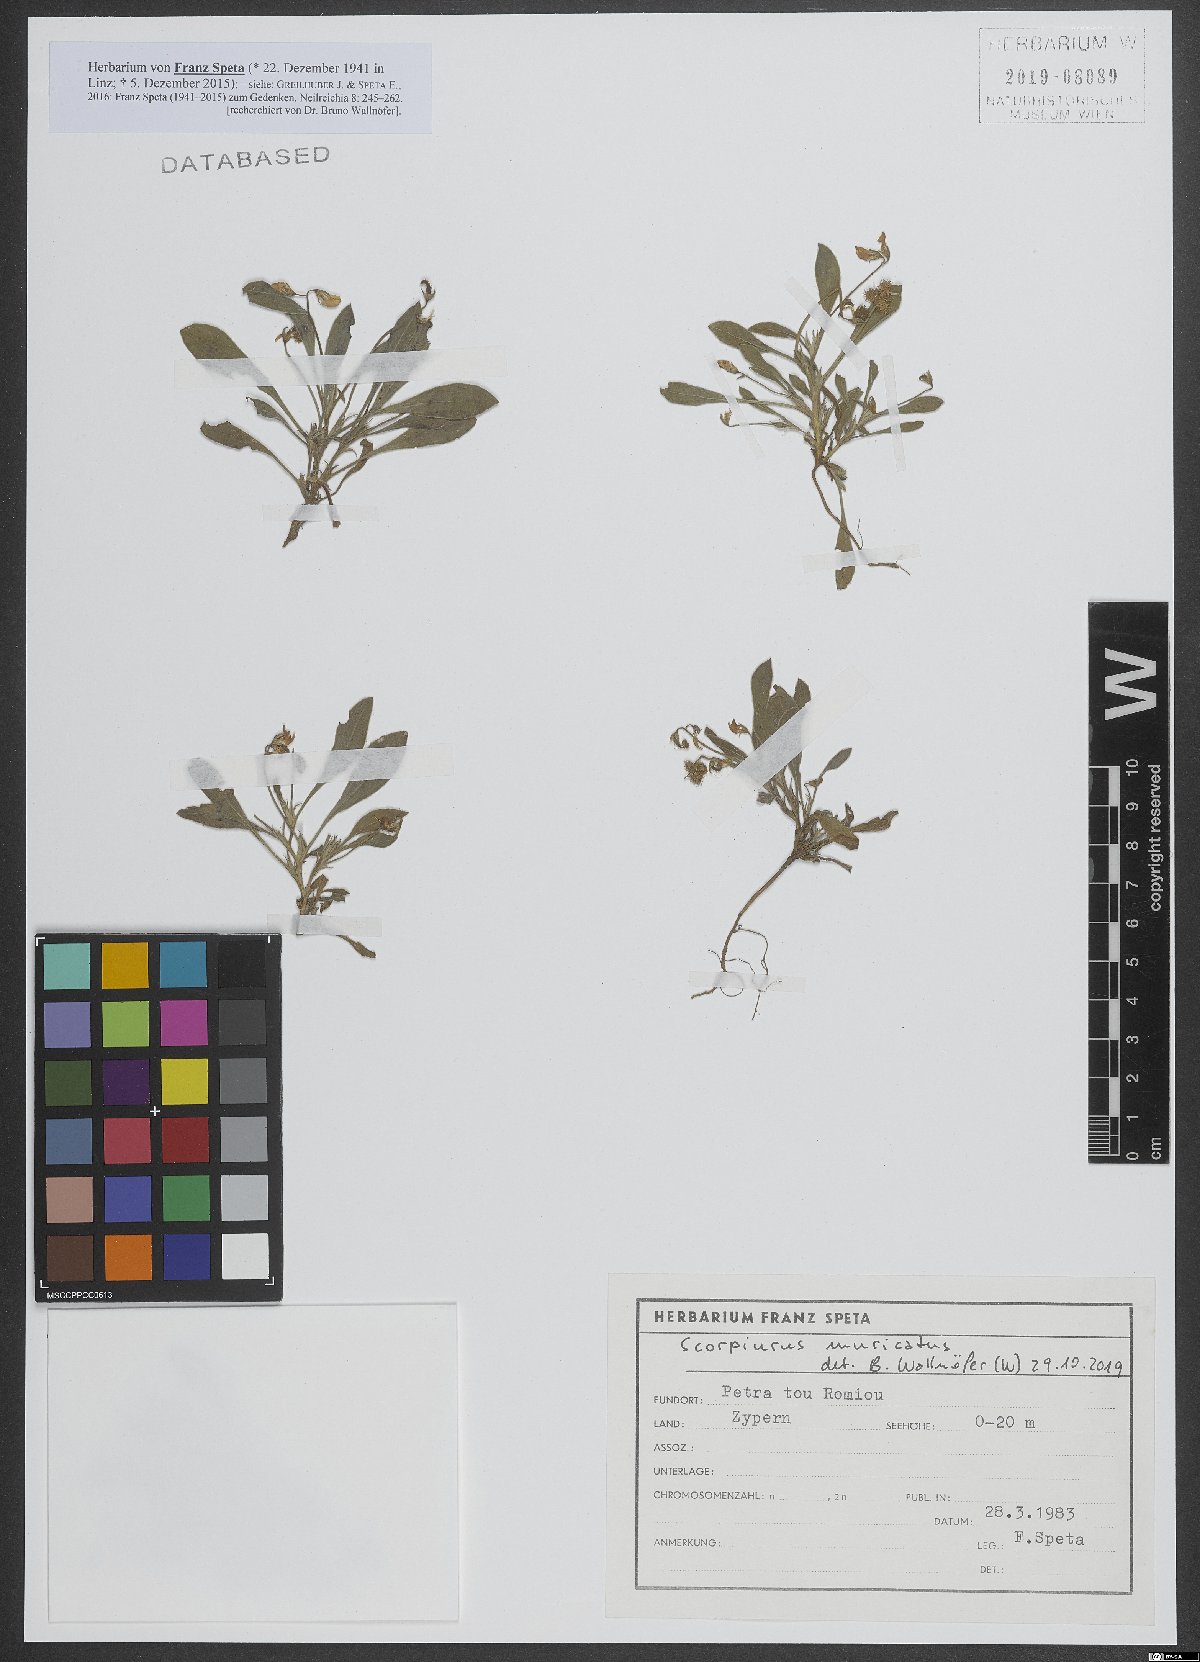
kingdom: Plantae
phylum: Tracheophyta
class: Magnoliopsida
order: Fabales
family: Fabaceae
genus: Scorpiurus
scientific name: Scorpiurus muricatus
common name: Caterpillar-plant
